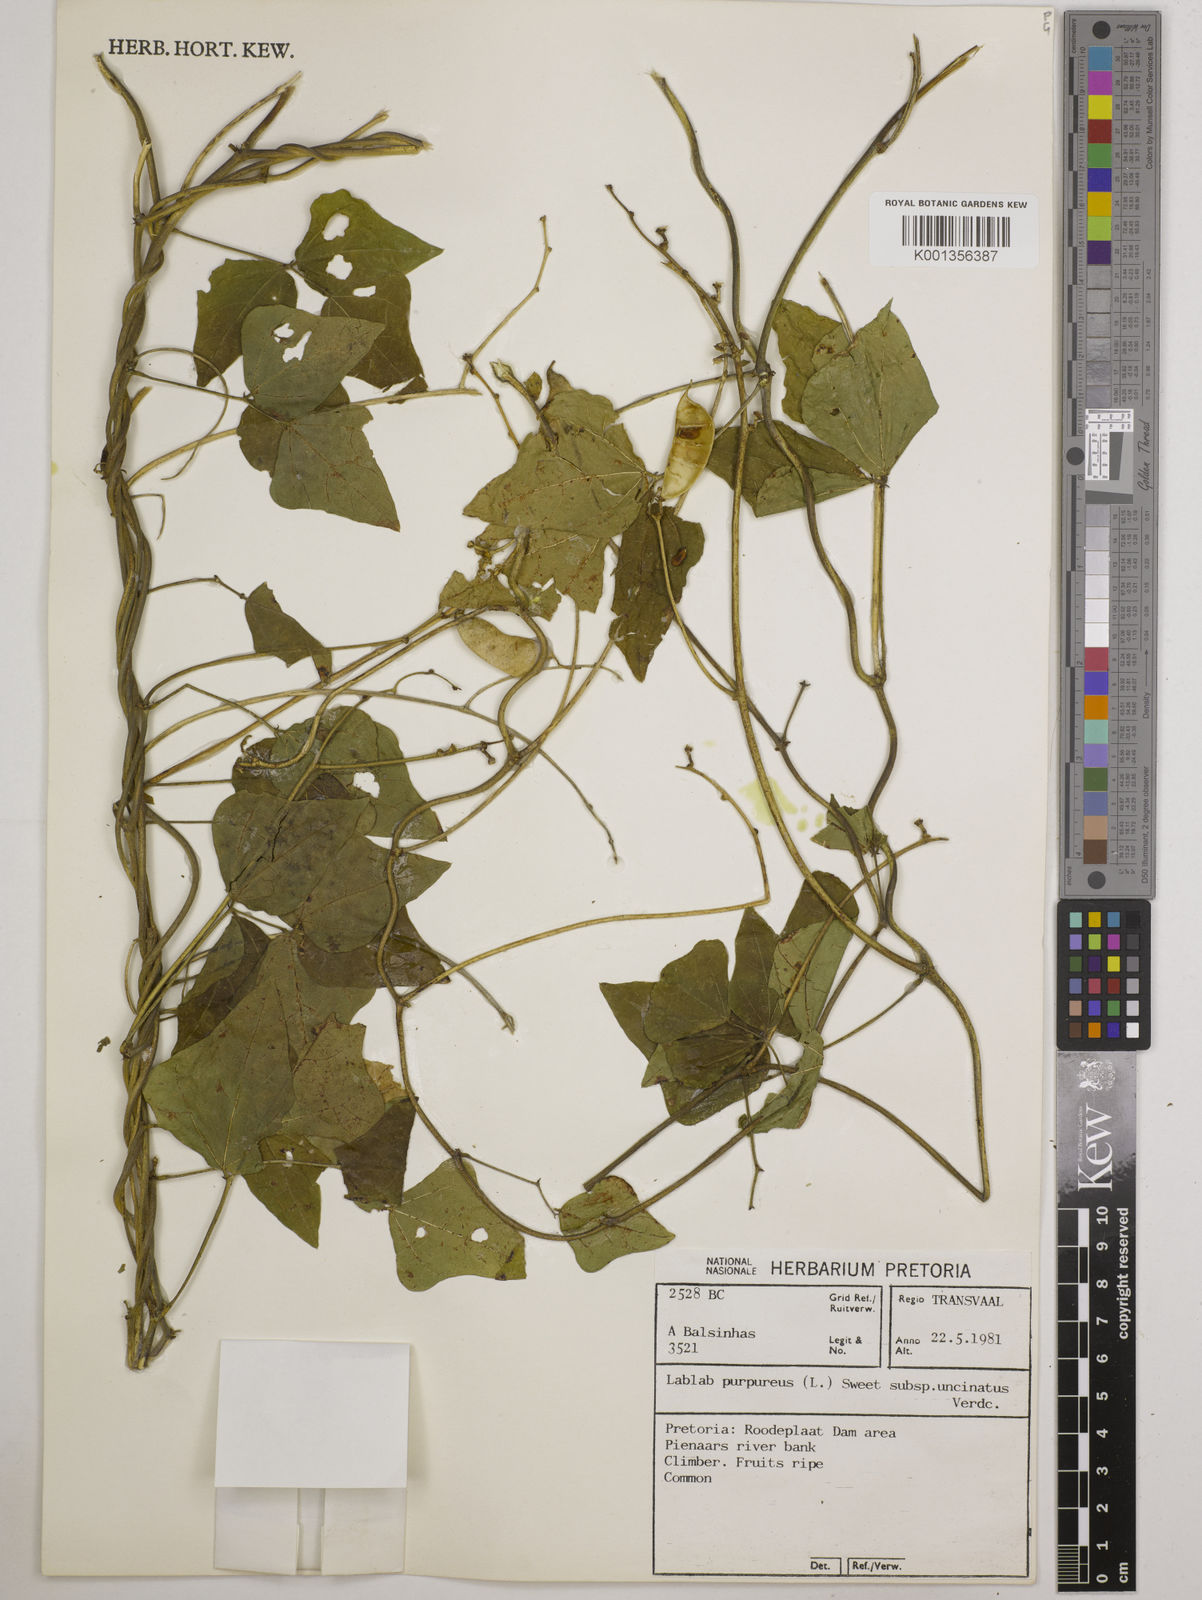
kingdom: Plantae
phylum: Tracheophyta
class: Magnoliopsida
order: Fabales
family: Fabaceae
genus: Lablab
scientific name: Lablab purpureus
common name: Lablab-bean
